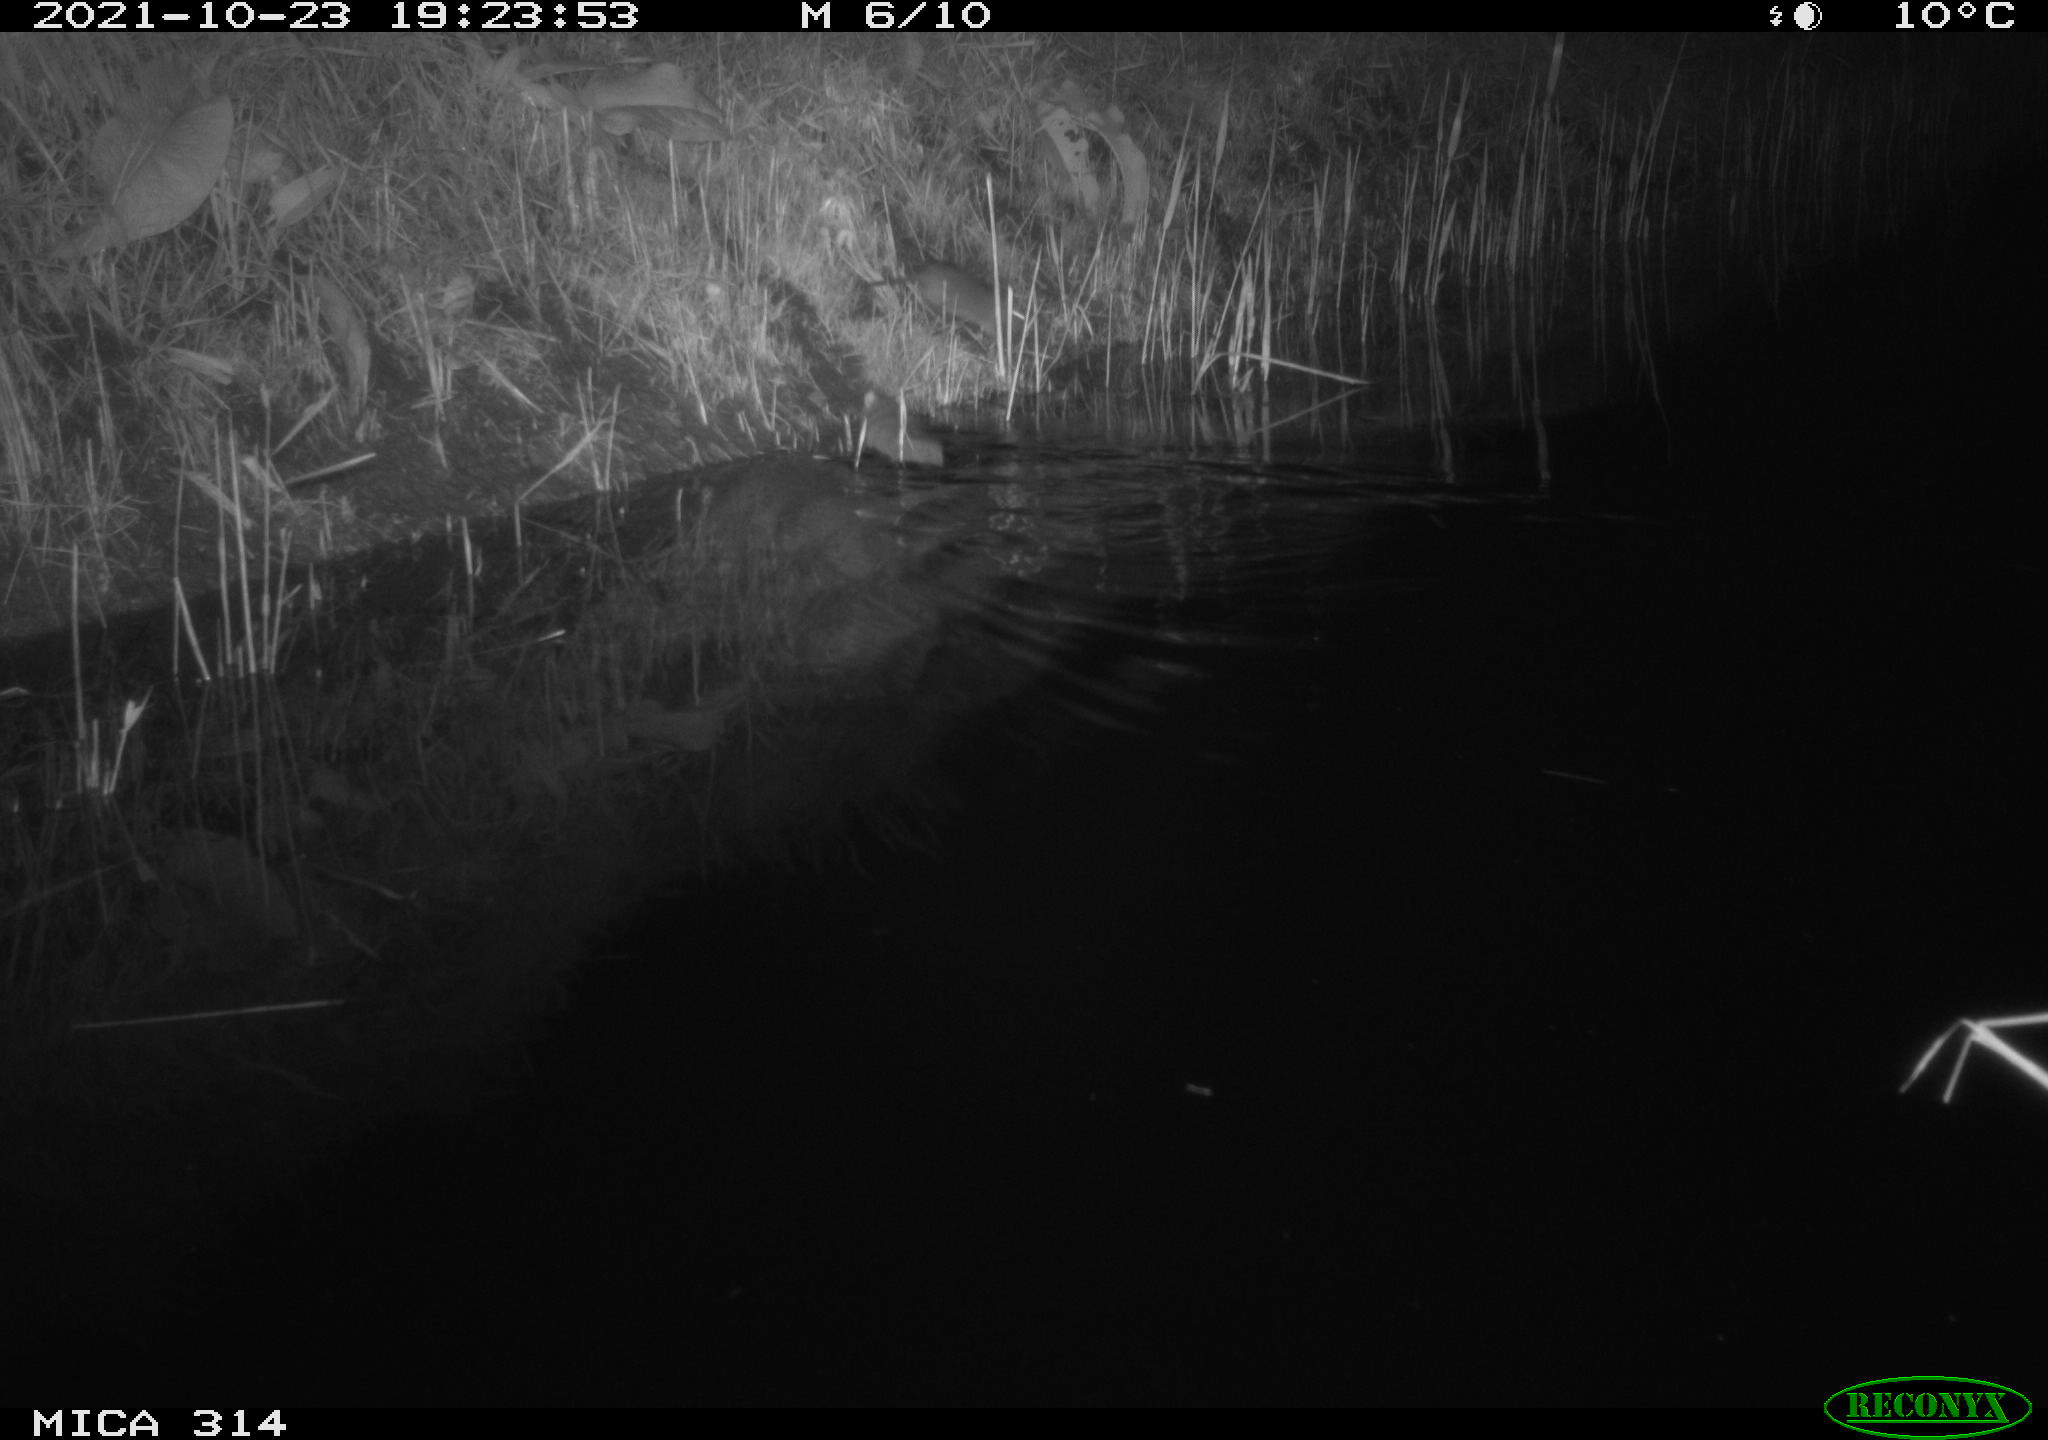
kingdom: Animalia
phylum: Chordata
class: Mammalia
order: Rodentia
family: Muridae
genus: Rattus
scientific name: Rattus norvegicus
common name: Brown rat
